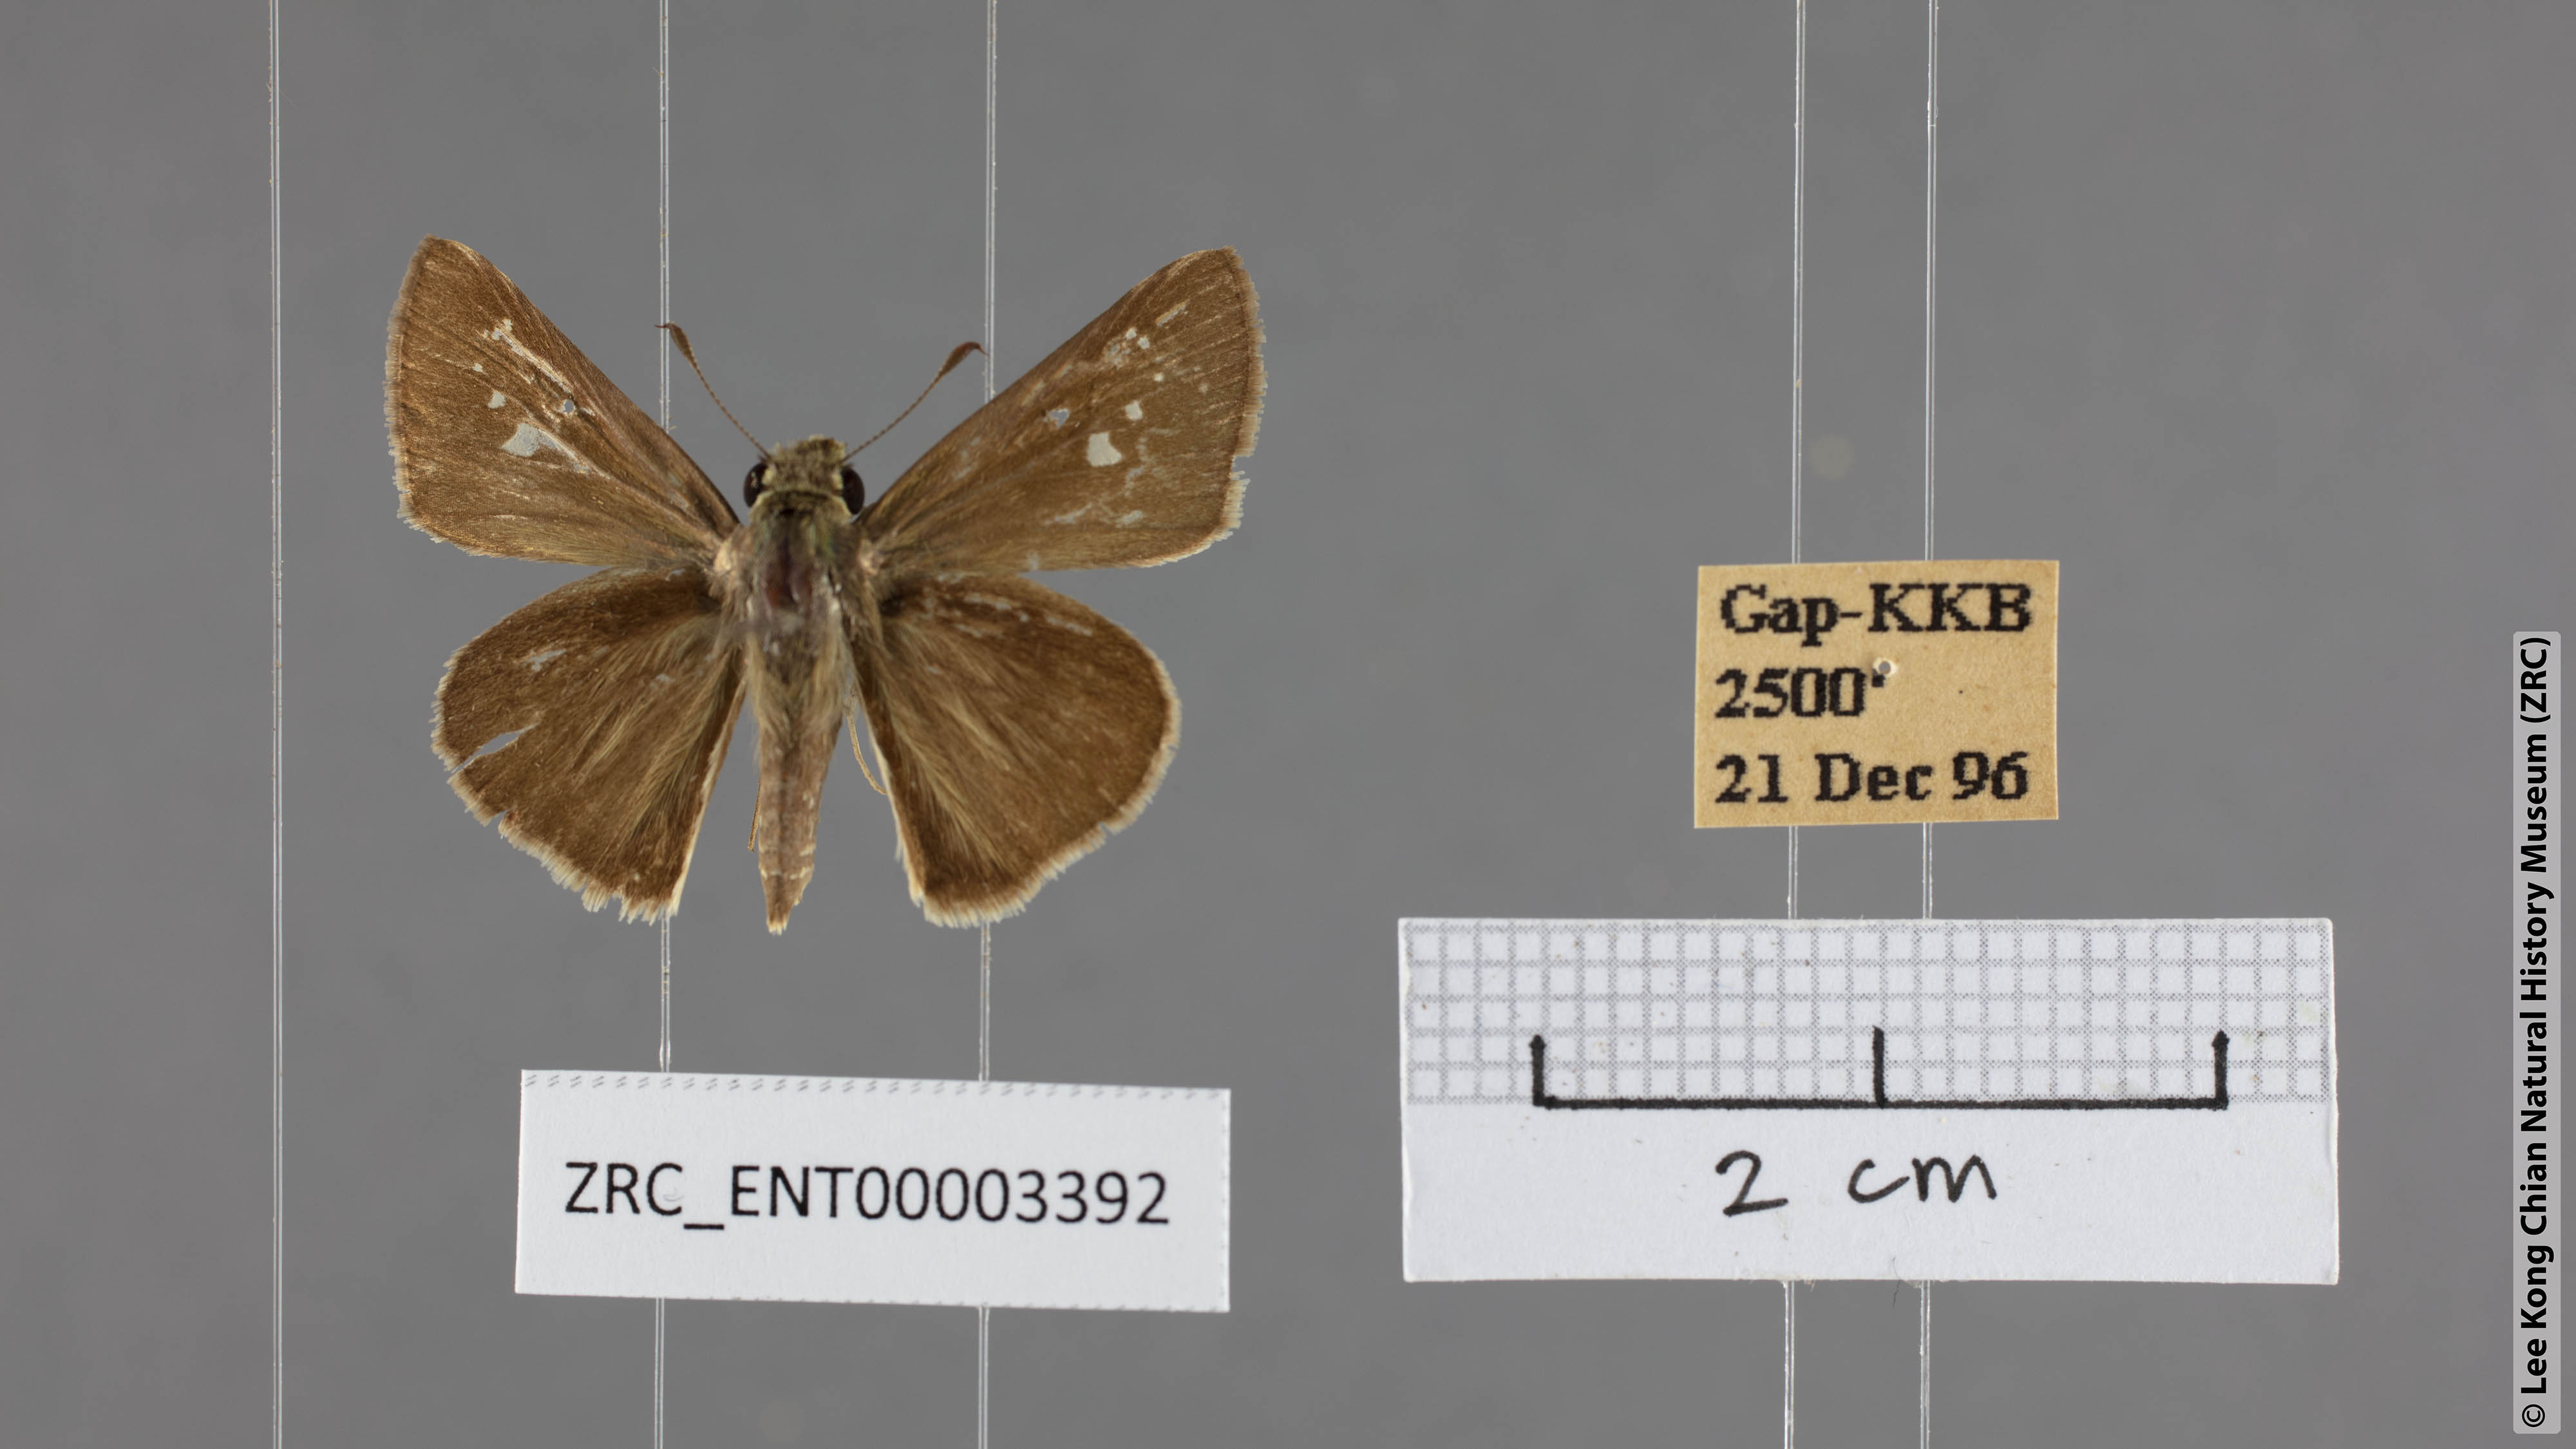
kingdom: Animalia
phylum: Arthropoda
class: Insecta
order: Lepidoptera
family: Hesperiidae
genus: Parnara
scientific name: Parnara naso
